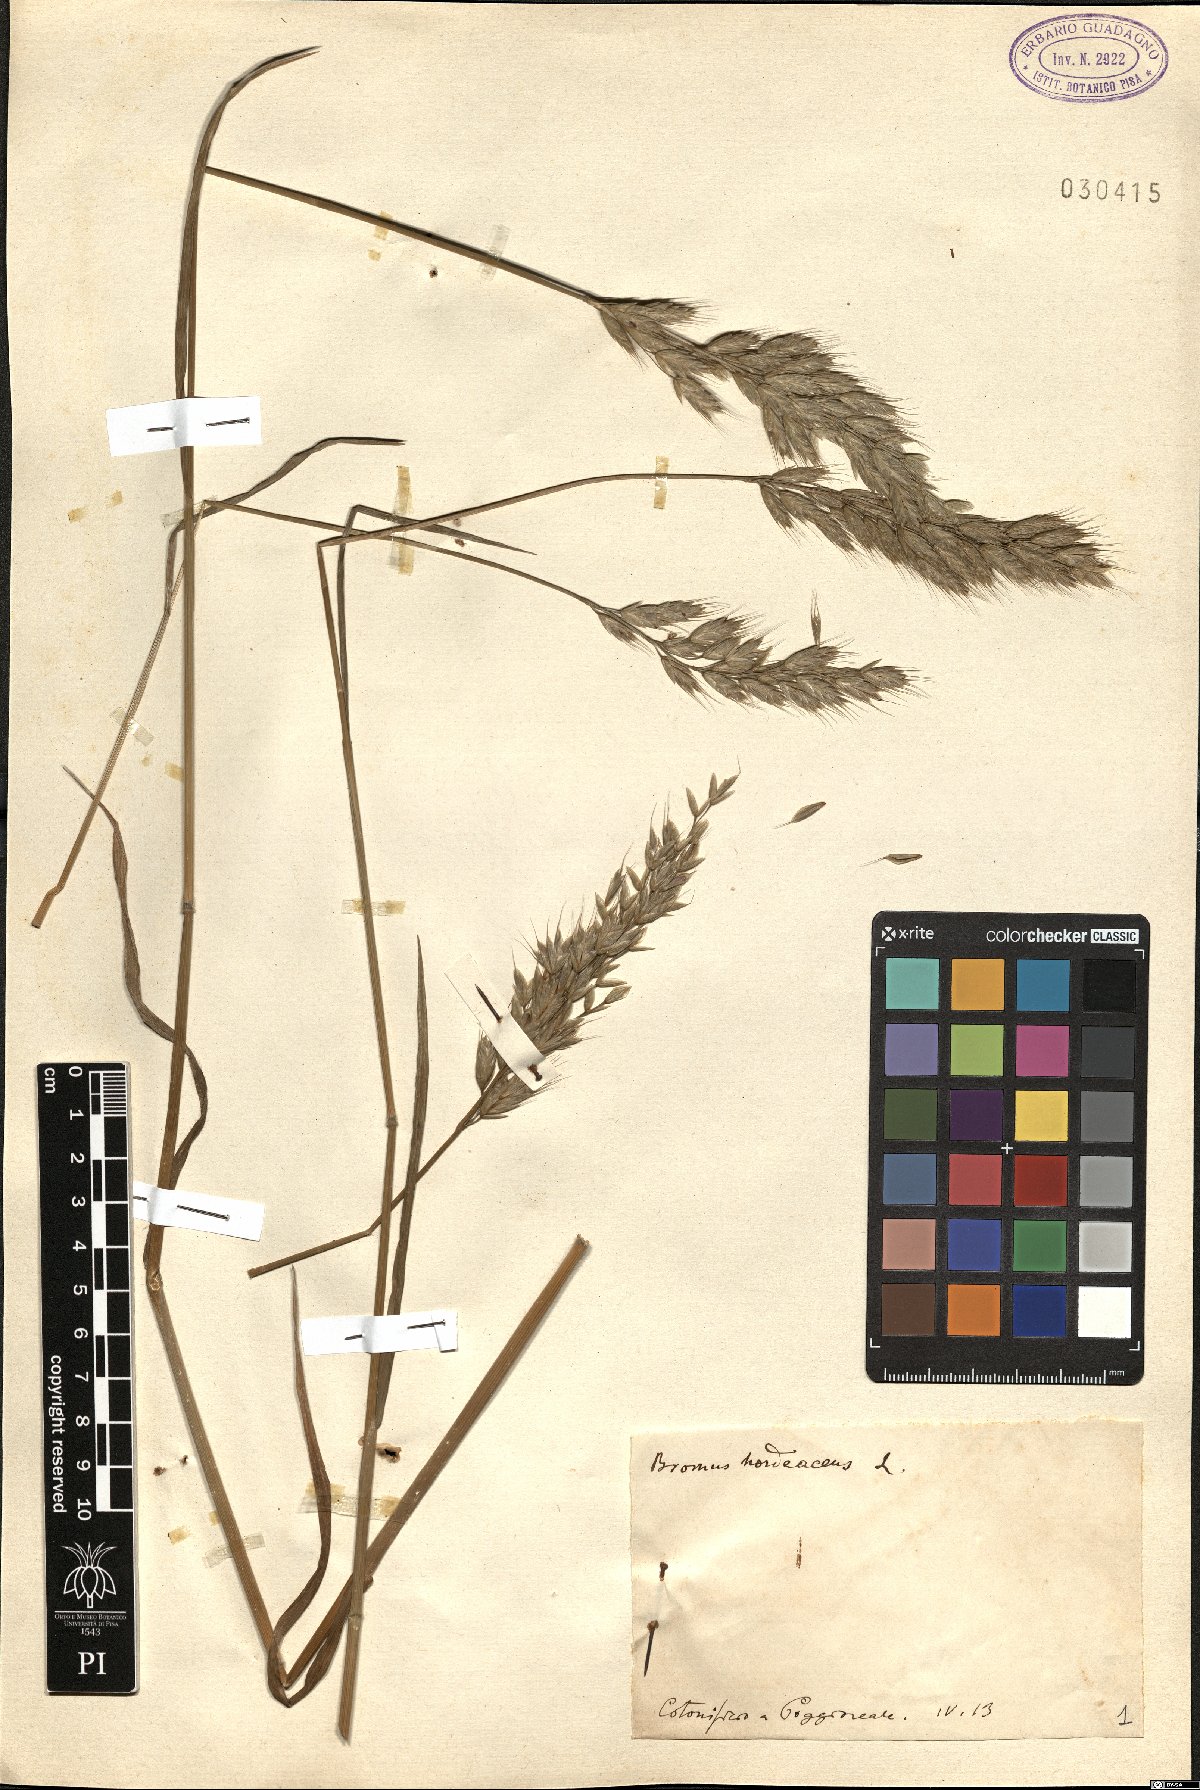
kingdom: Plantae
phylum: Tracheophyta
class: Liliopsida
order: Poales
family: Poaceae
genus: Bromus
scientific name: Bromus hordeaceus
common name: Soft brome
